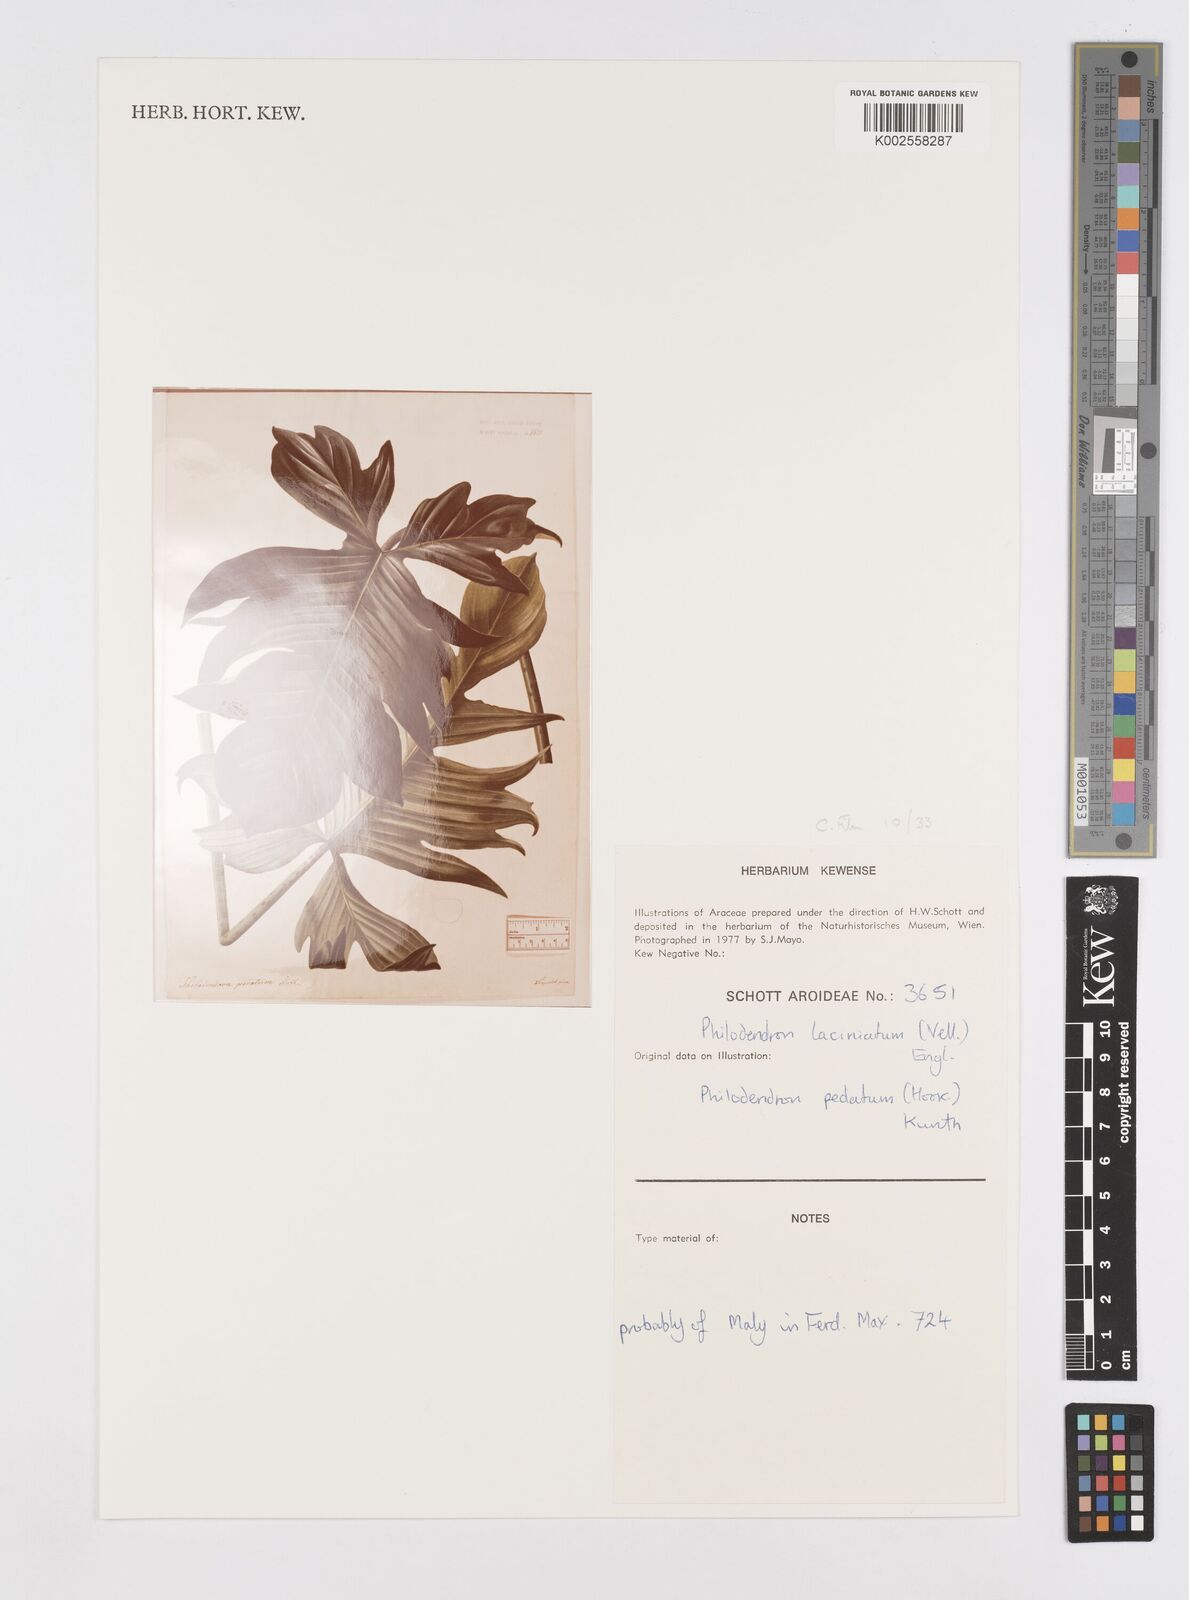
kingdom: Plantae
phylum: Tracheophyta
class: Liliopsida
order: Alismatales
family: Araceae
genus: Philodendron
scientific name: Philodendron pedatum
